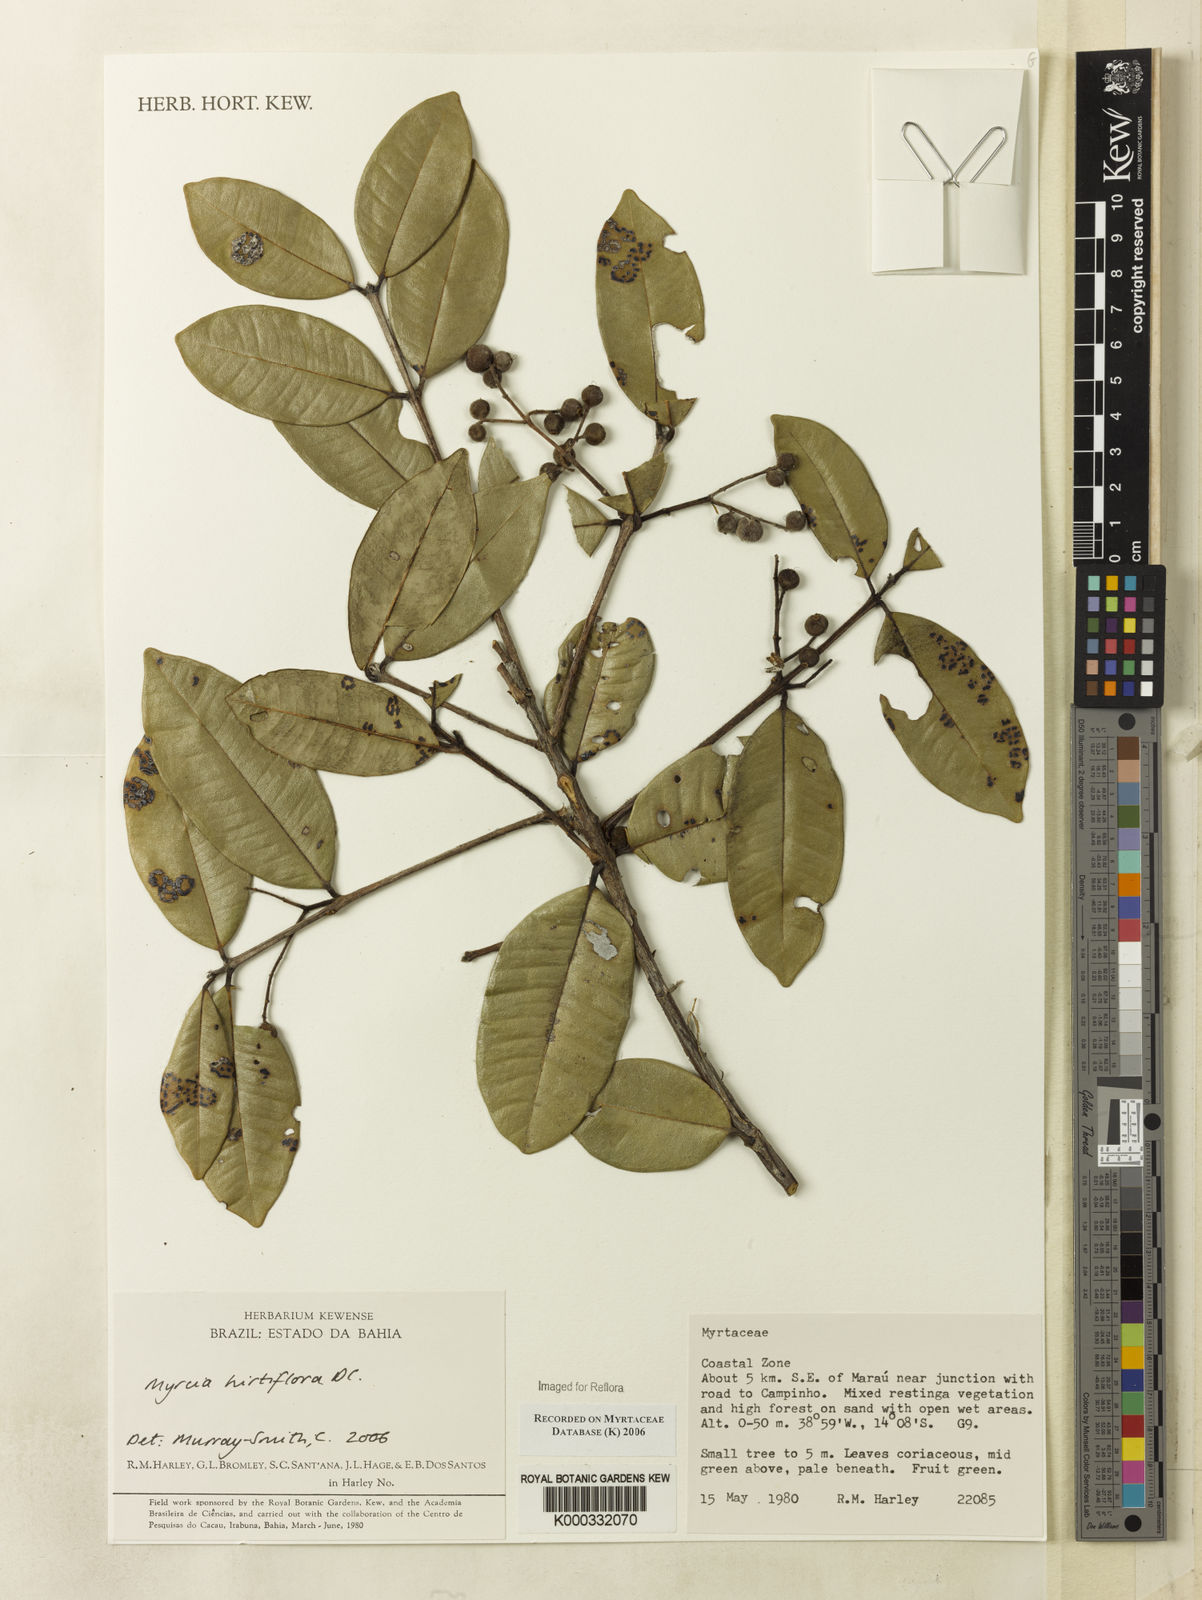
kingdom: Plantae
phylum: Tracheophyta
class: Magnoliopsida
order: Myrtales
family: Myrtaceae
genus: Myrcia
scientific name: Myrcia tomentosa
